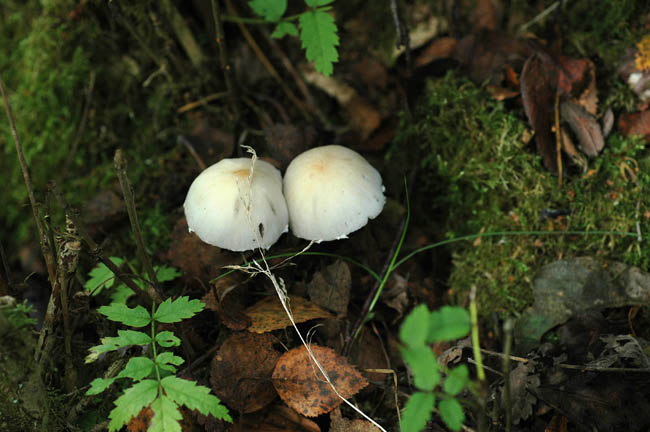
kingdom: Fungi
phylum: Basidiomycota
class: Agaricomycetes
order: Agaricales
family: Psathyrellaceae
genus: Candolleomyces
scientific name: Candolleomyces candolleanus
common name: Candolles mørkhat
